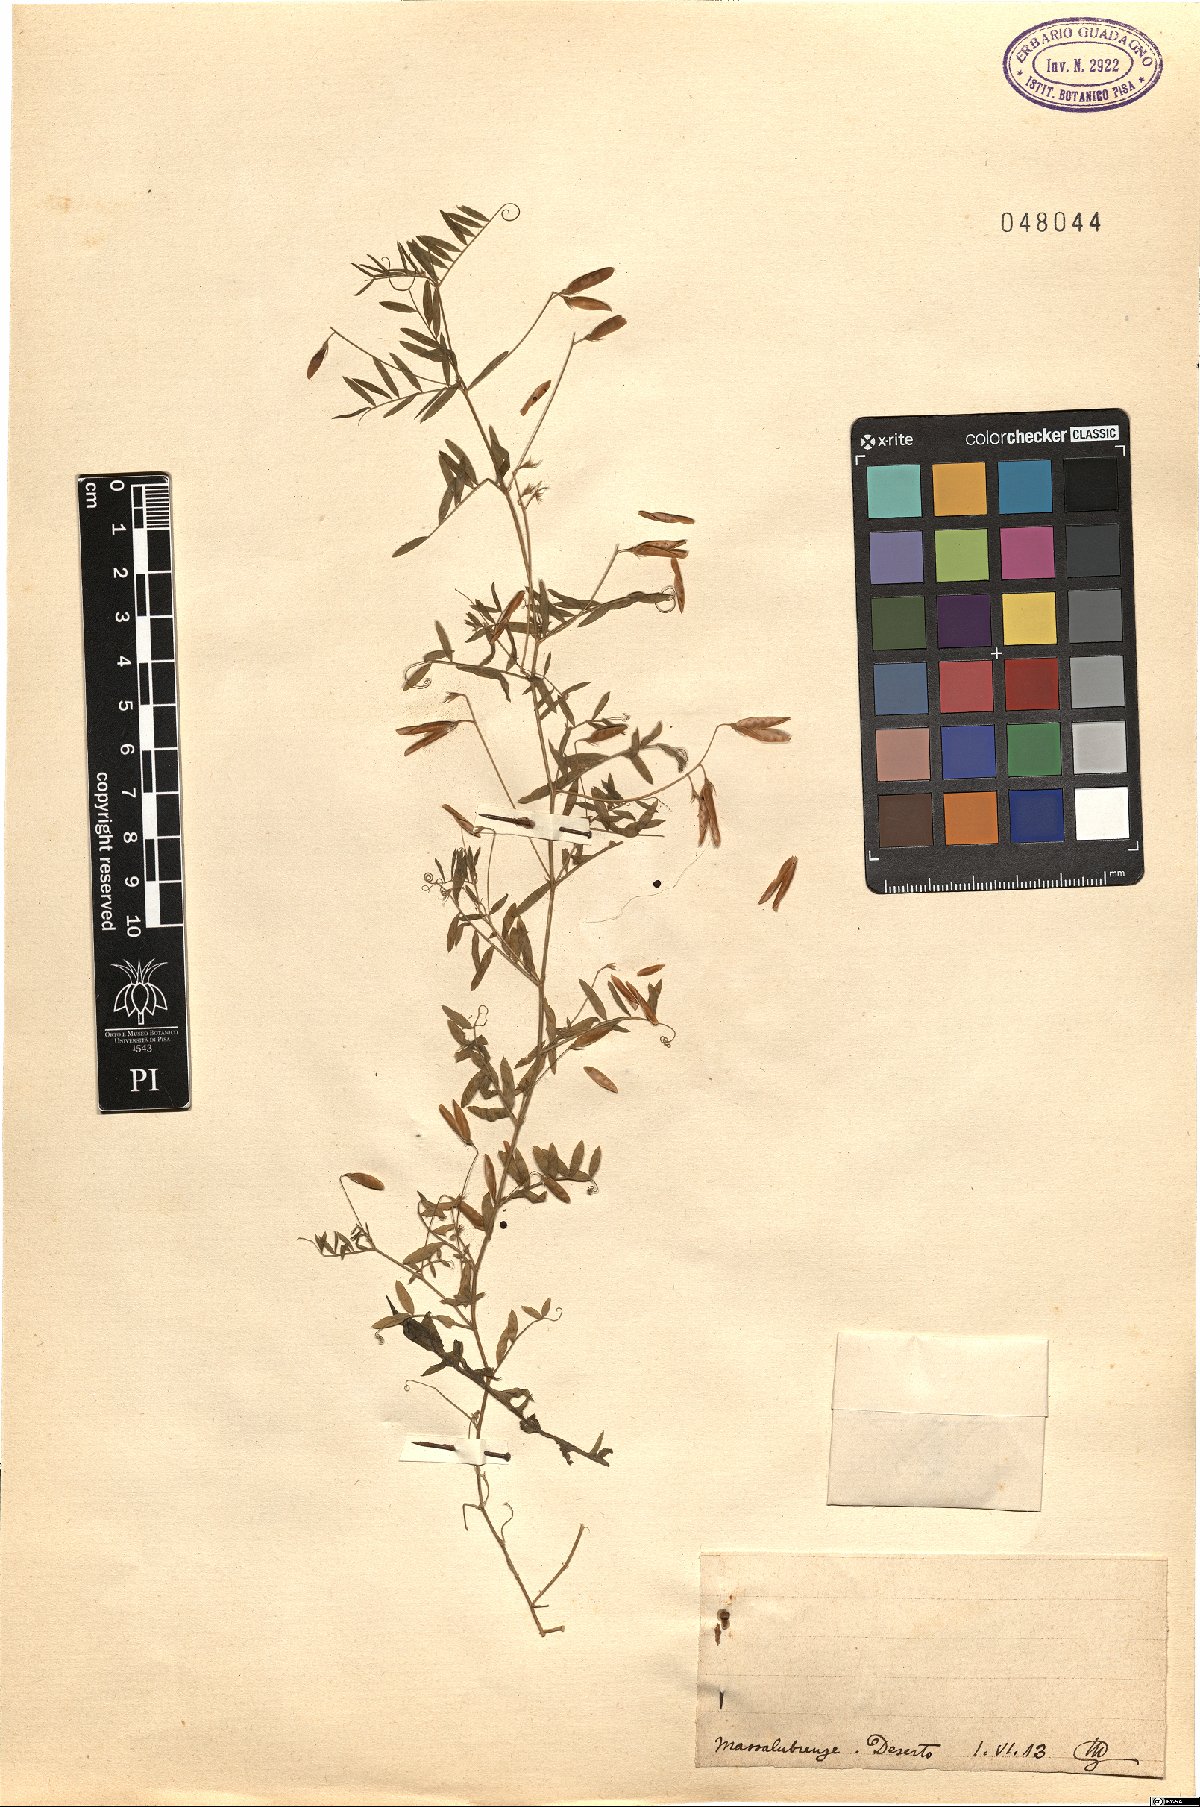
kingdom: Plantae
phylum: Tracheophyta
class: Magnoliopsida
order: Fabales
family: Fabaceae
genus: Vicia
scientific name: Vicia
